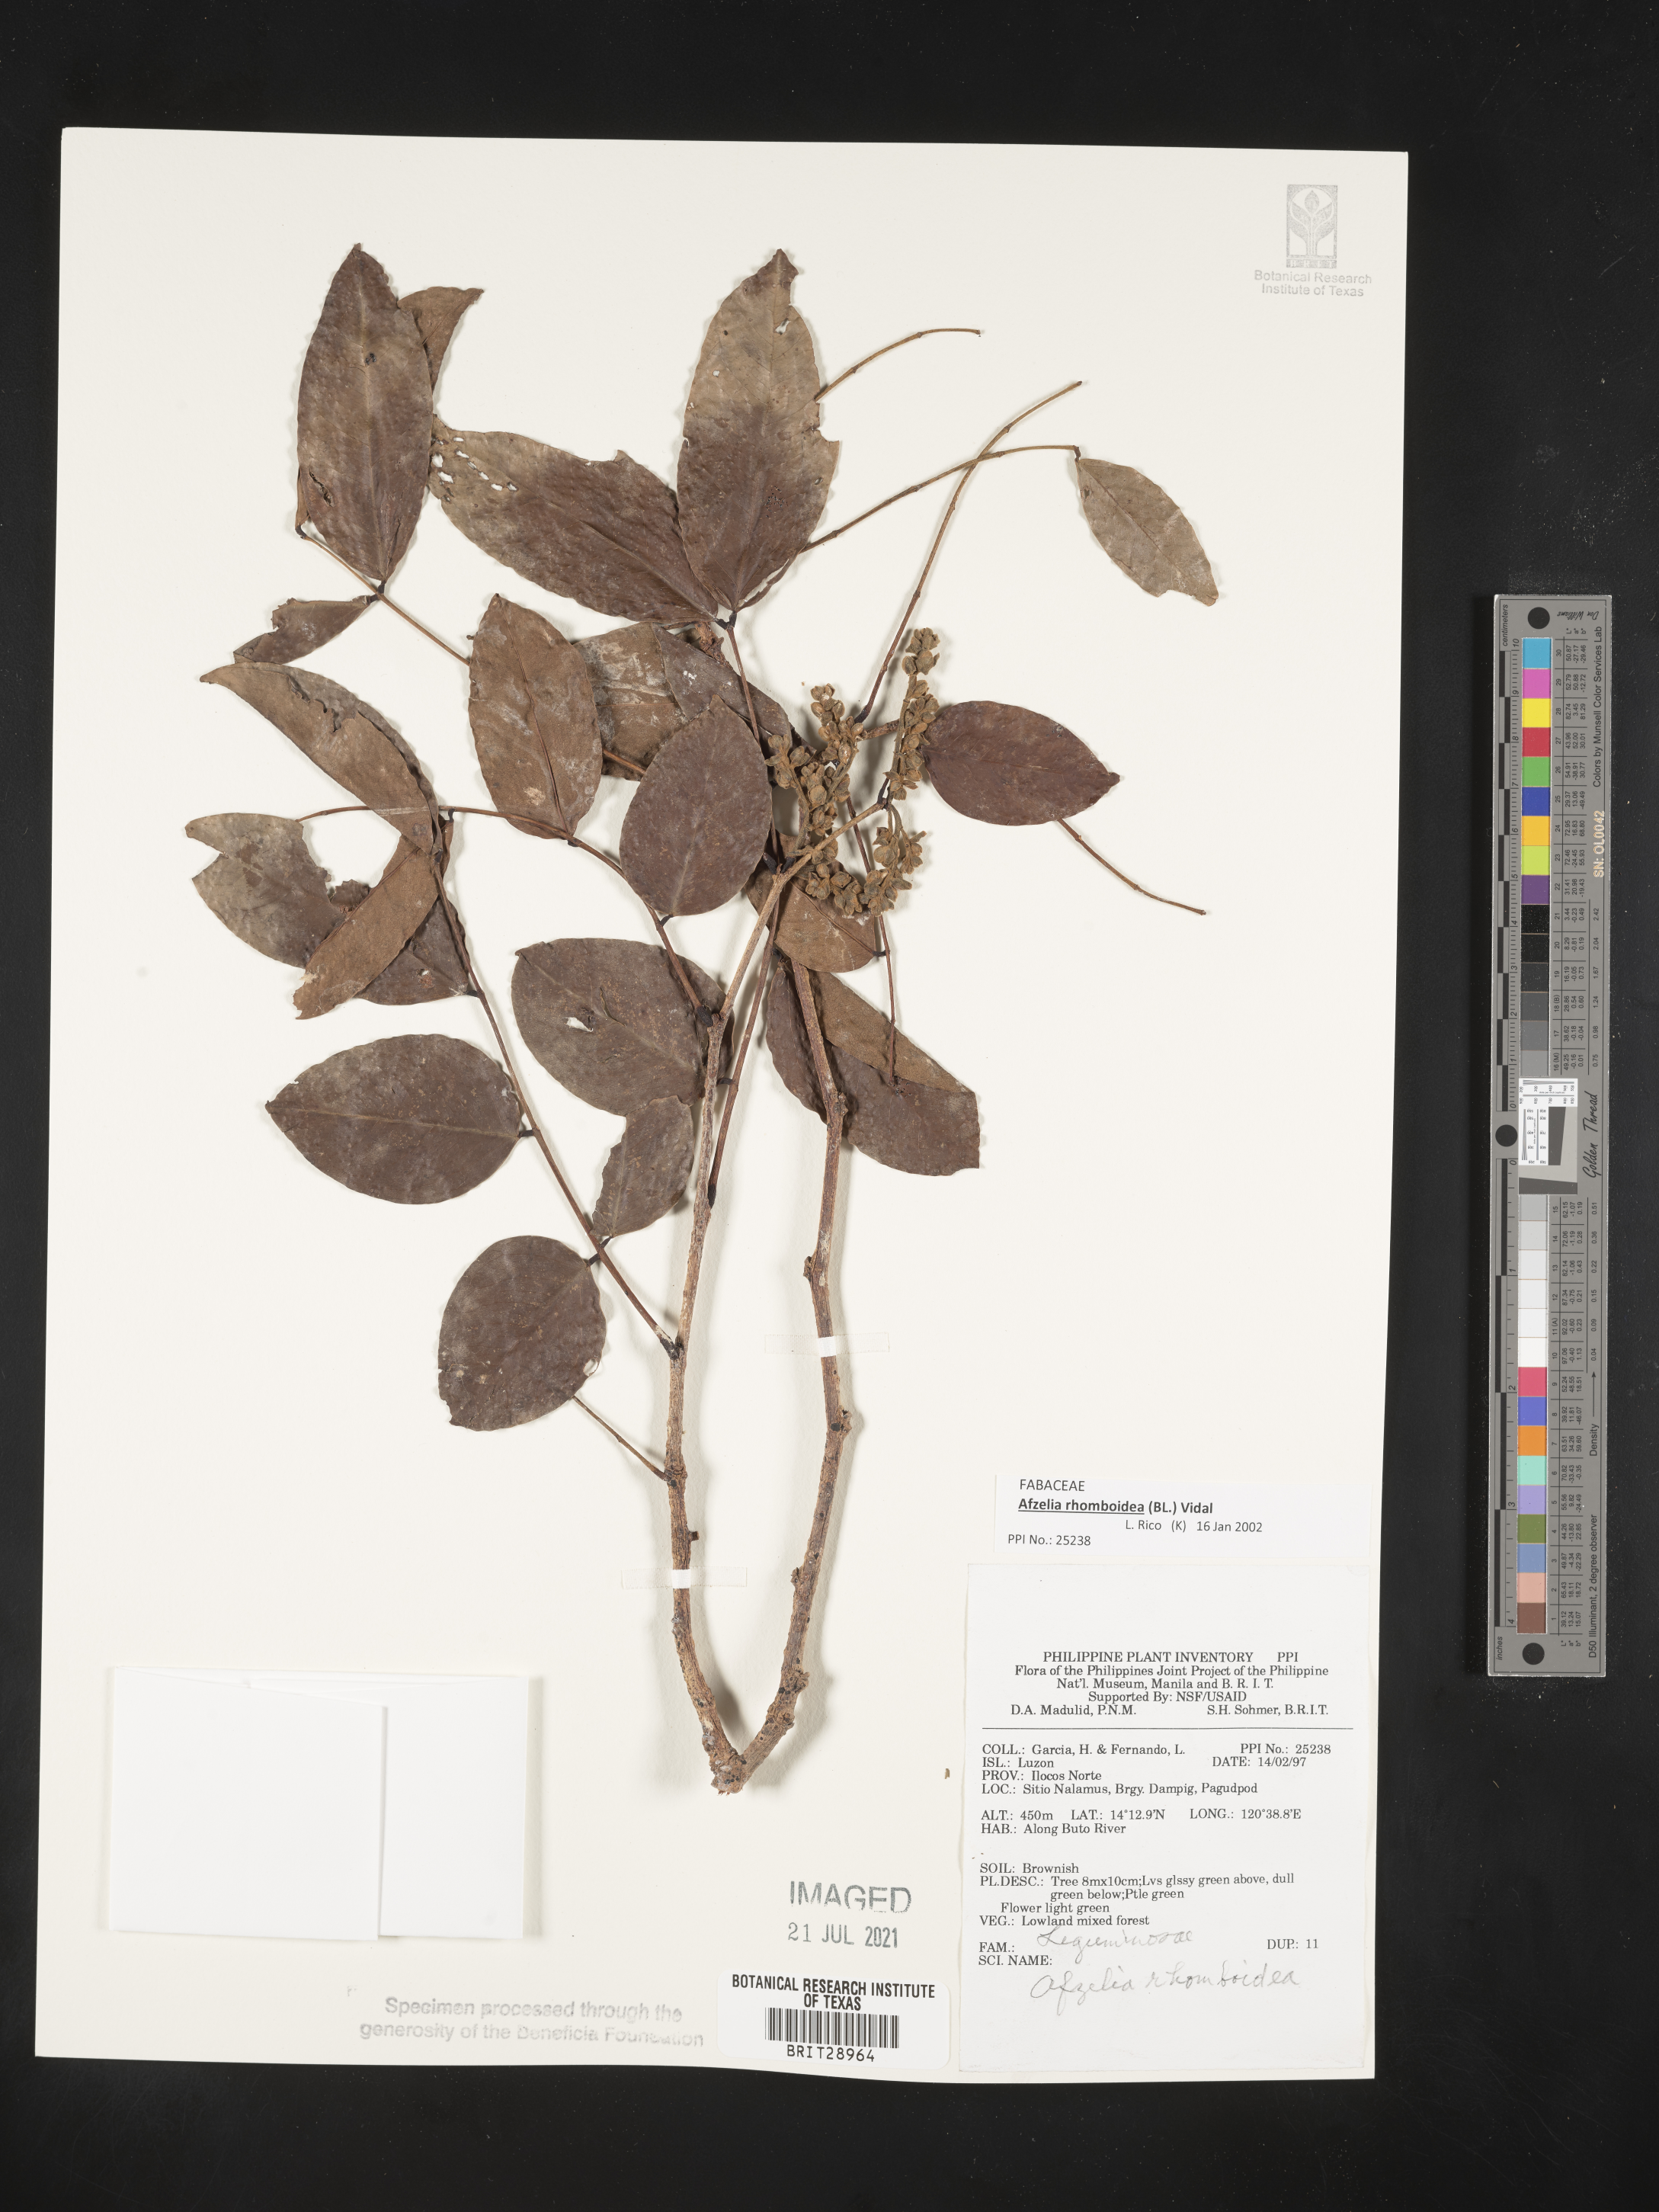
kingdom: Plantae
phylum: Tracheophyta
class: Magnoliopsida
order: Fabales
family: Fabaceae
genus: Afzelia
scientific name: Afzelia rhomboidea
